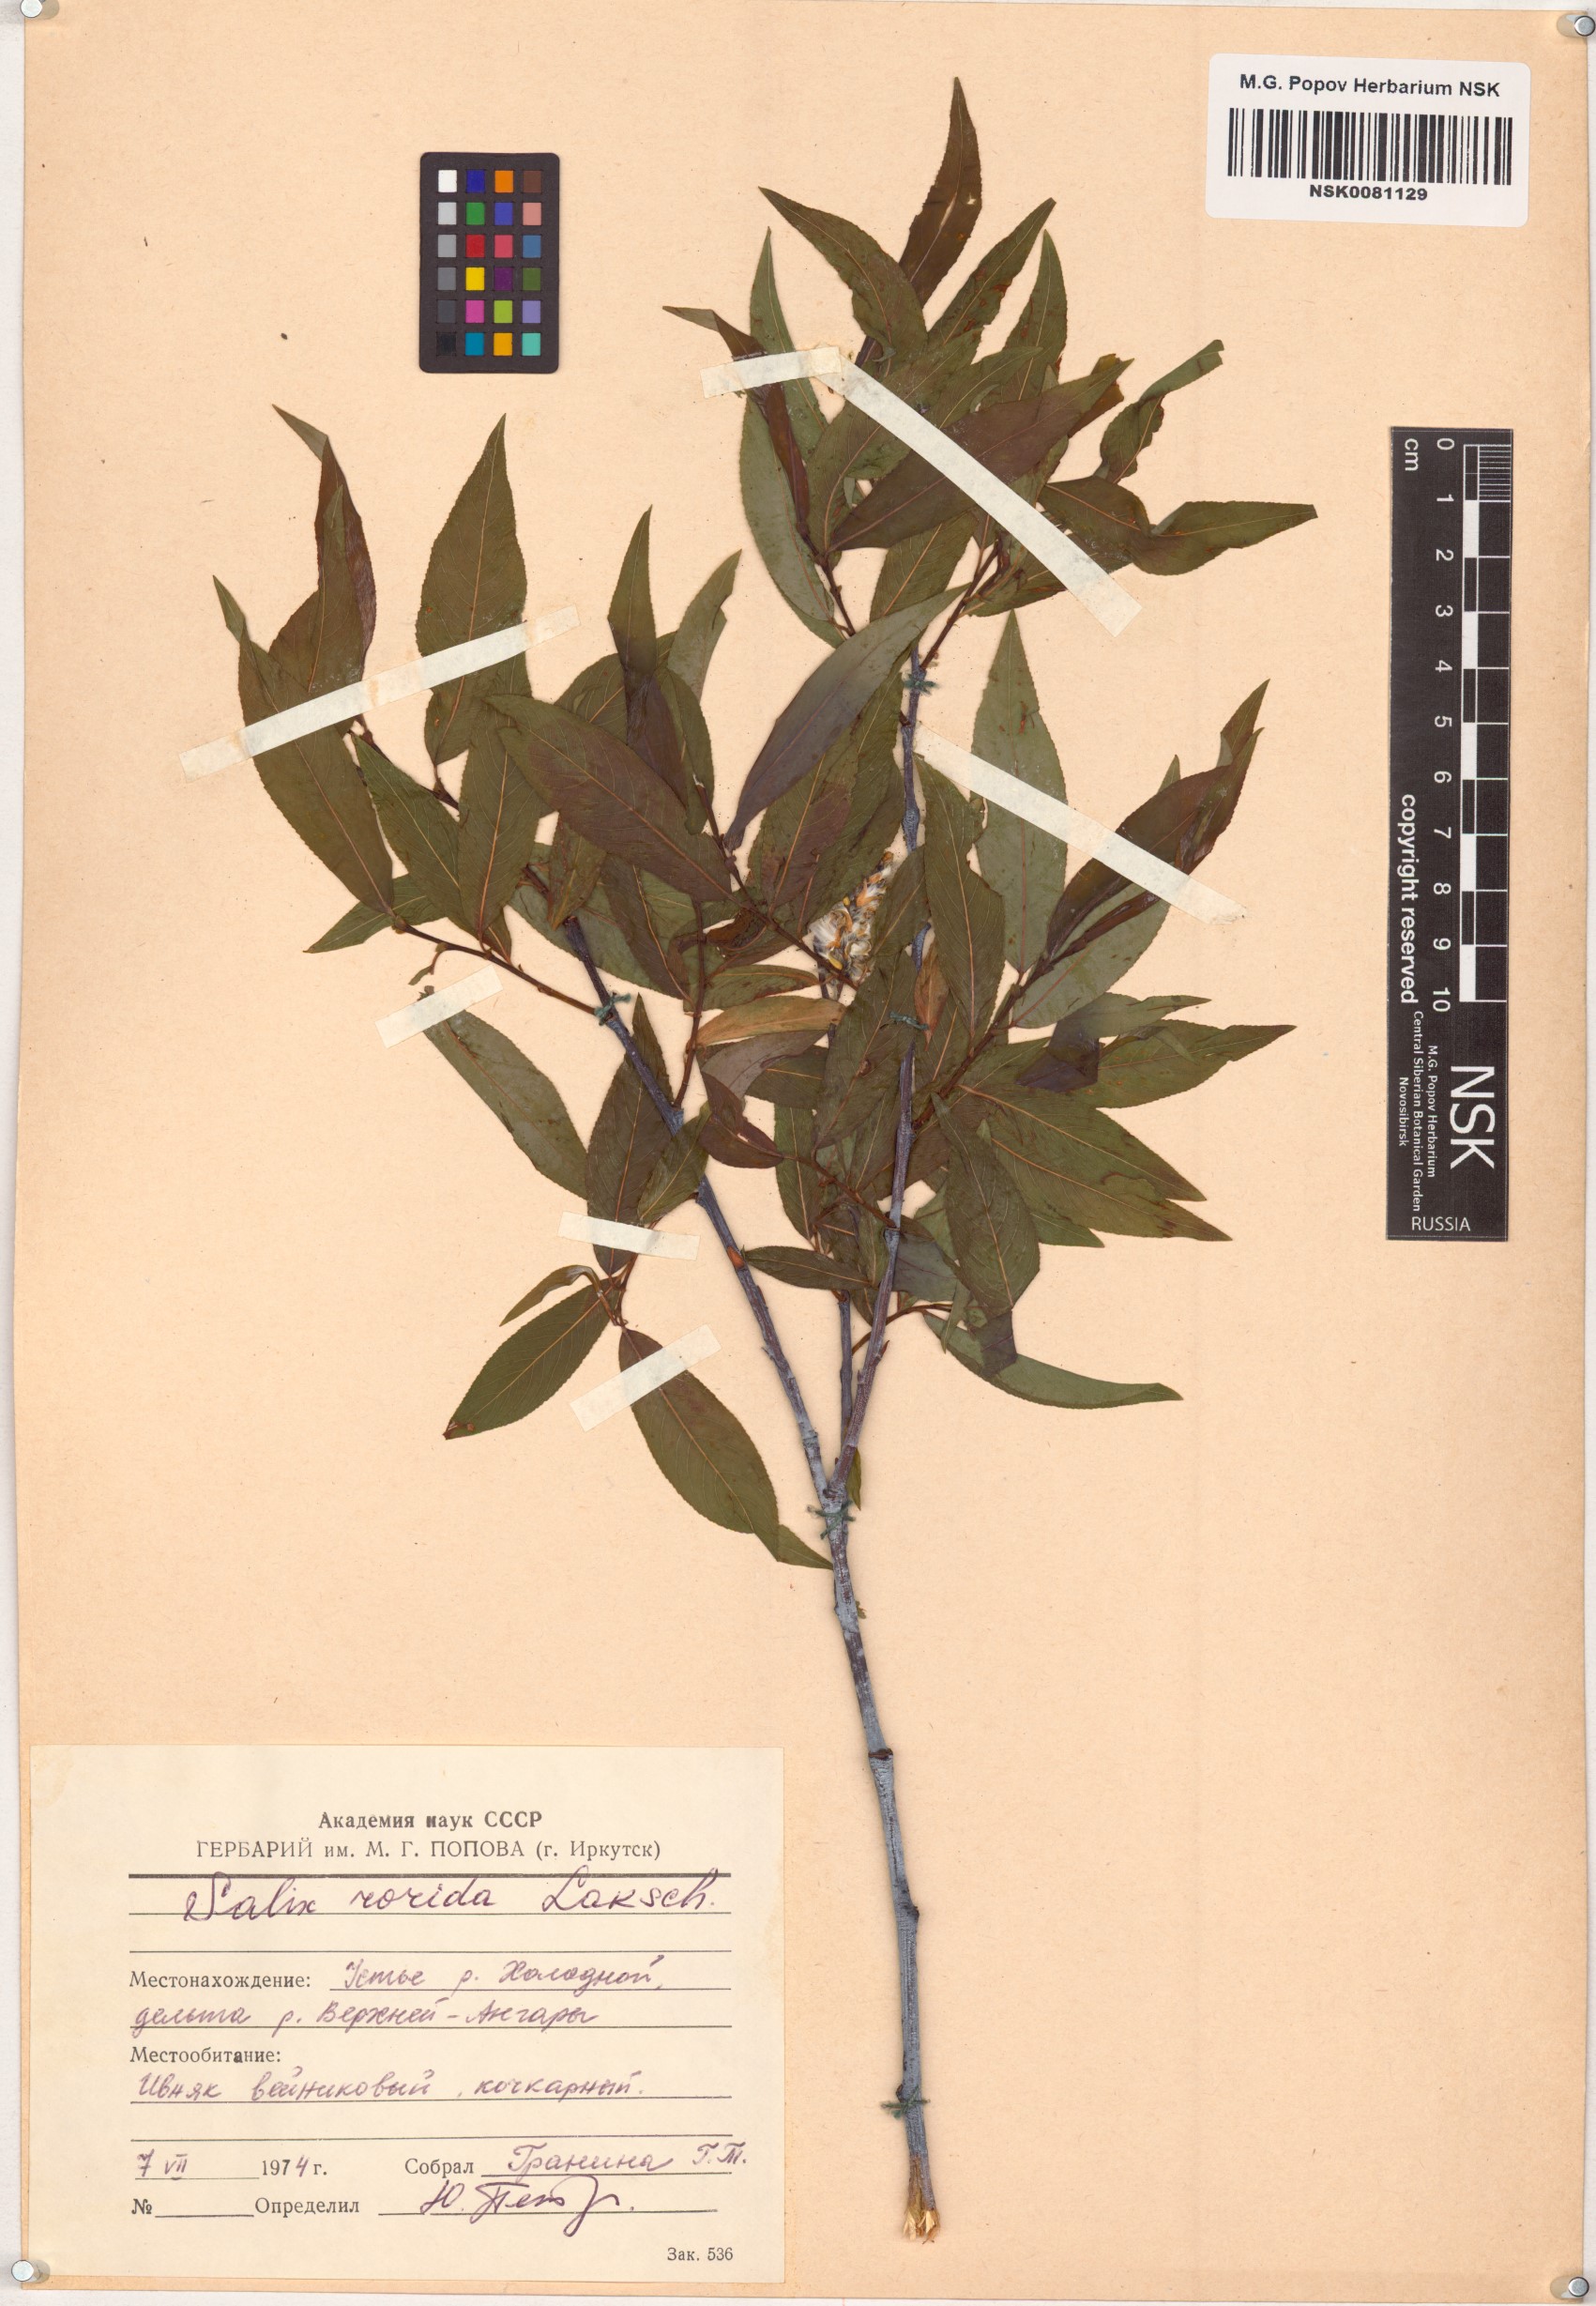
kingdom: Plantae
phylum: Tracheophyta
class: Magnoliopsida
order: Malpighiales
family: Salicaceae
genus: Salix
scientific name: Salix rorida
